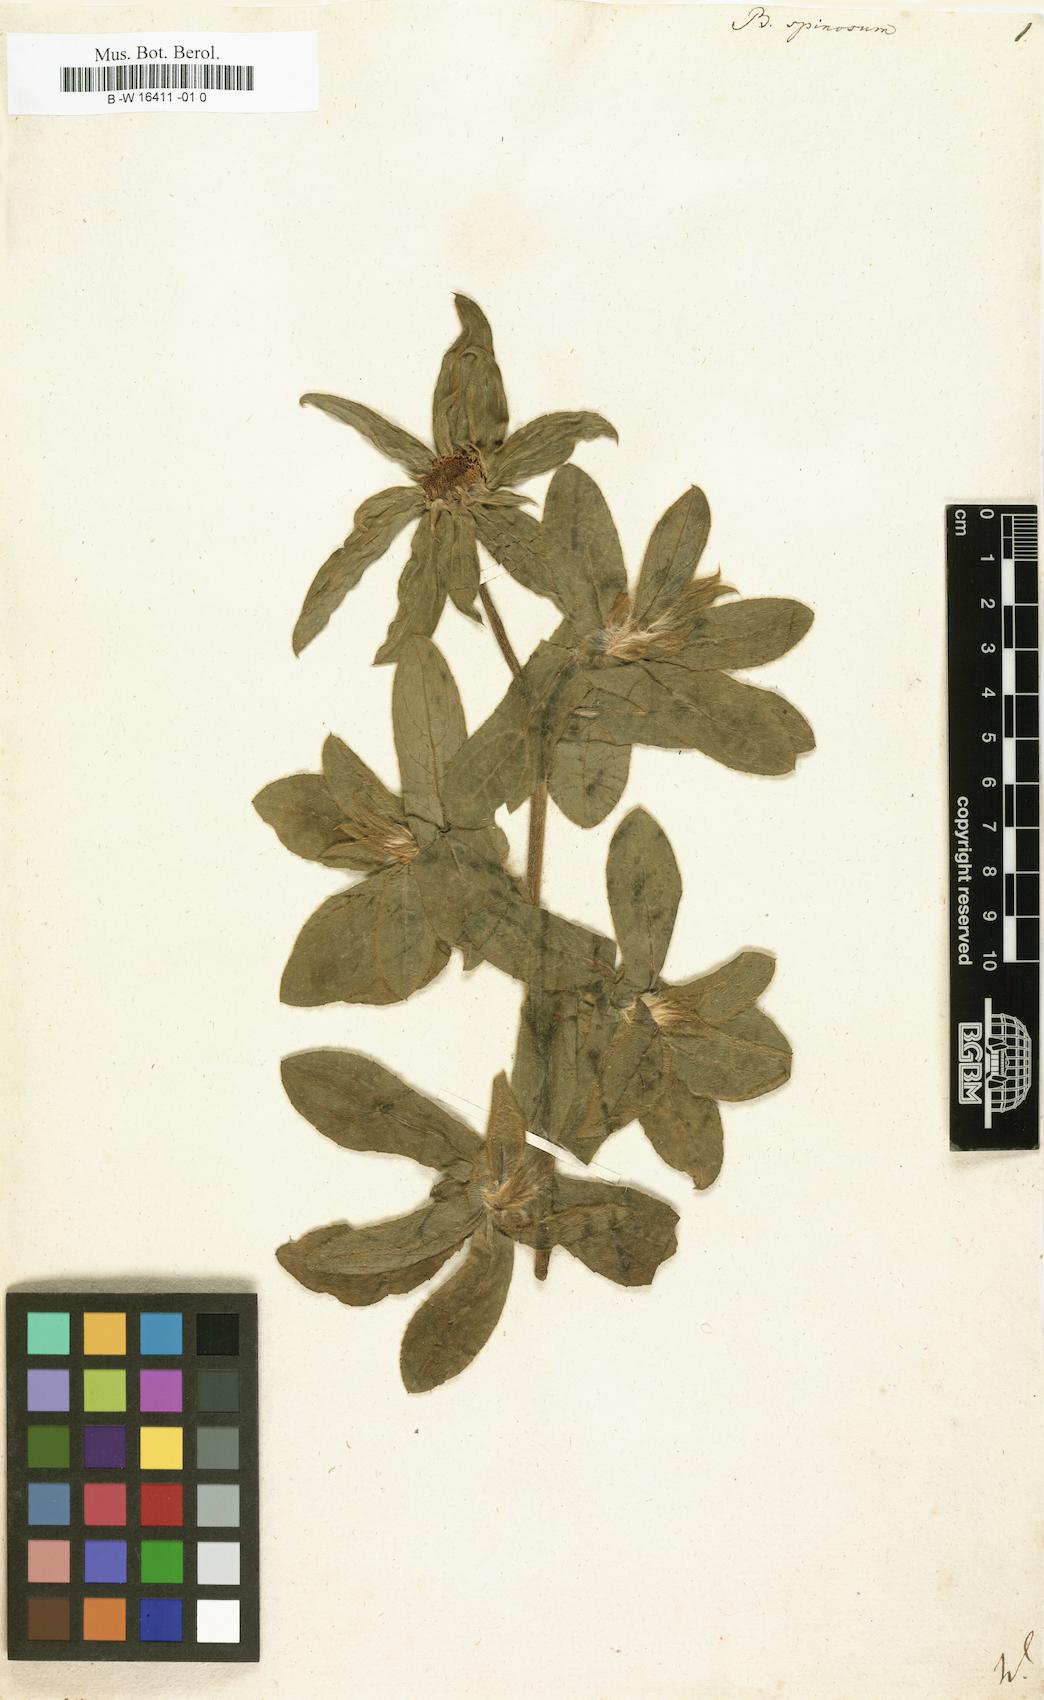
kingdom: Plantae
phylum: Tracheophyta
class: Magnoliopsida
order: Asterales
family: Asteraceae
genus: Pallenis
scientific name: Pallenis spinosa
